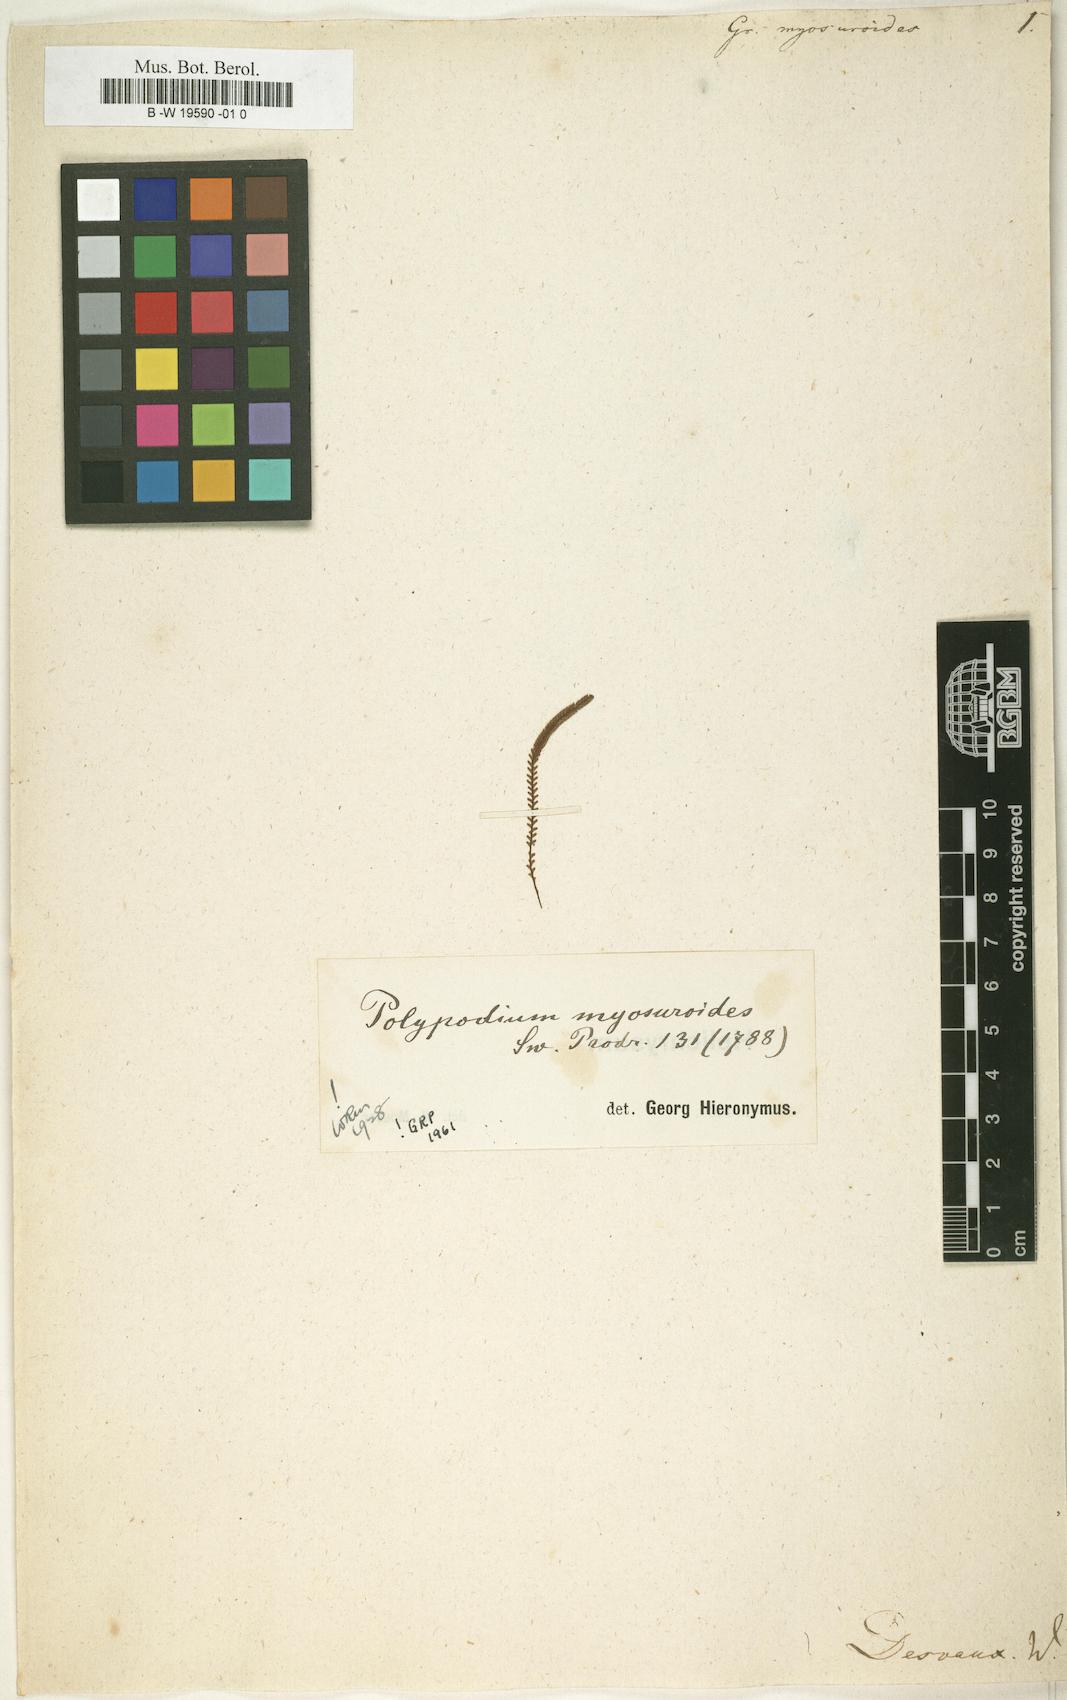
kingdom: Plantae
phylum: Tracheophyta
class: Polypodiopsida
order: Polypodiales
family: Polypodiaceae
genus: Stenogrammitis
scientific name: Stenogrammitis
